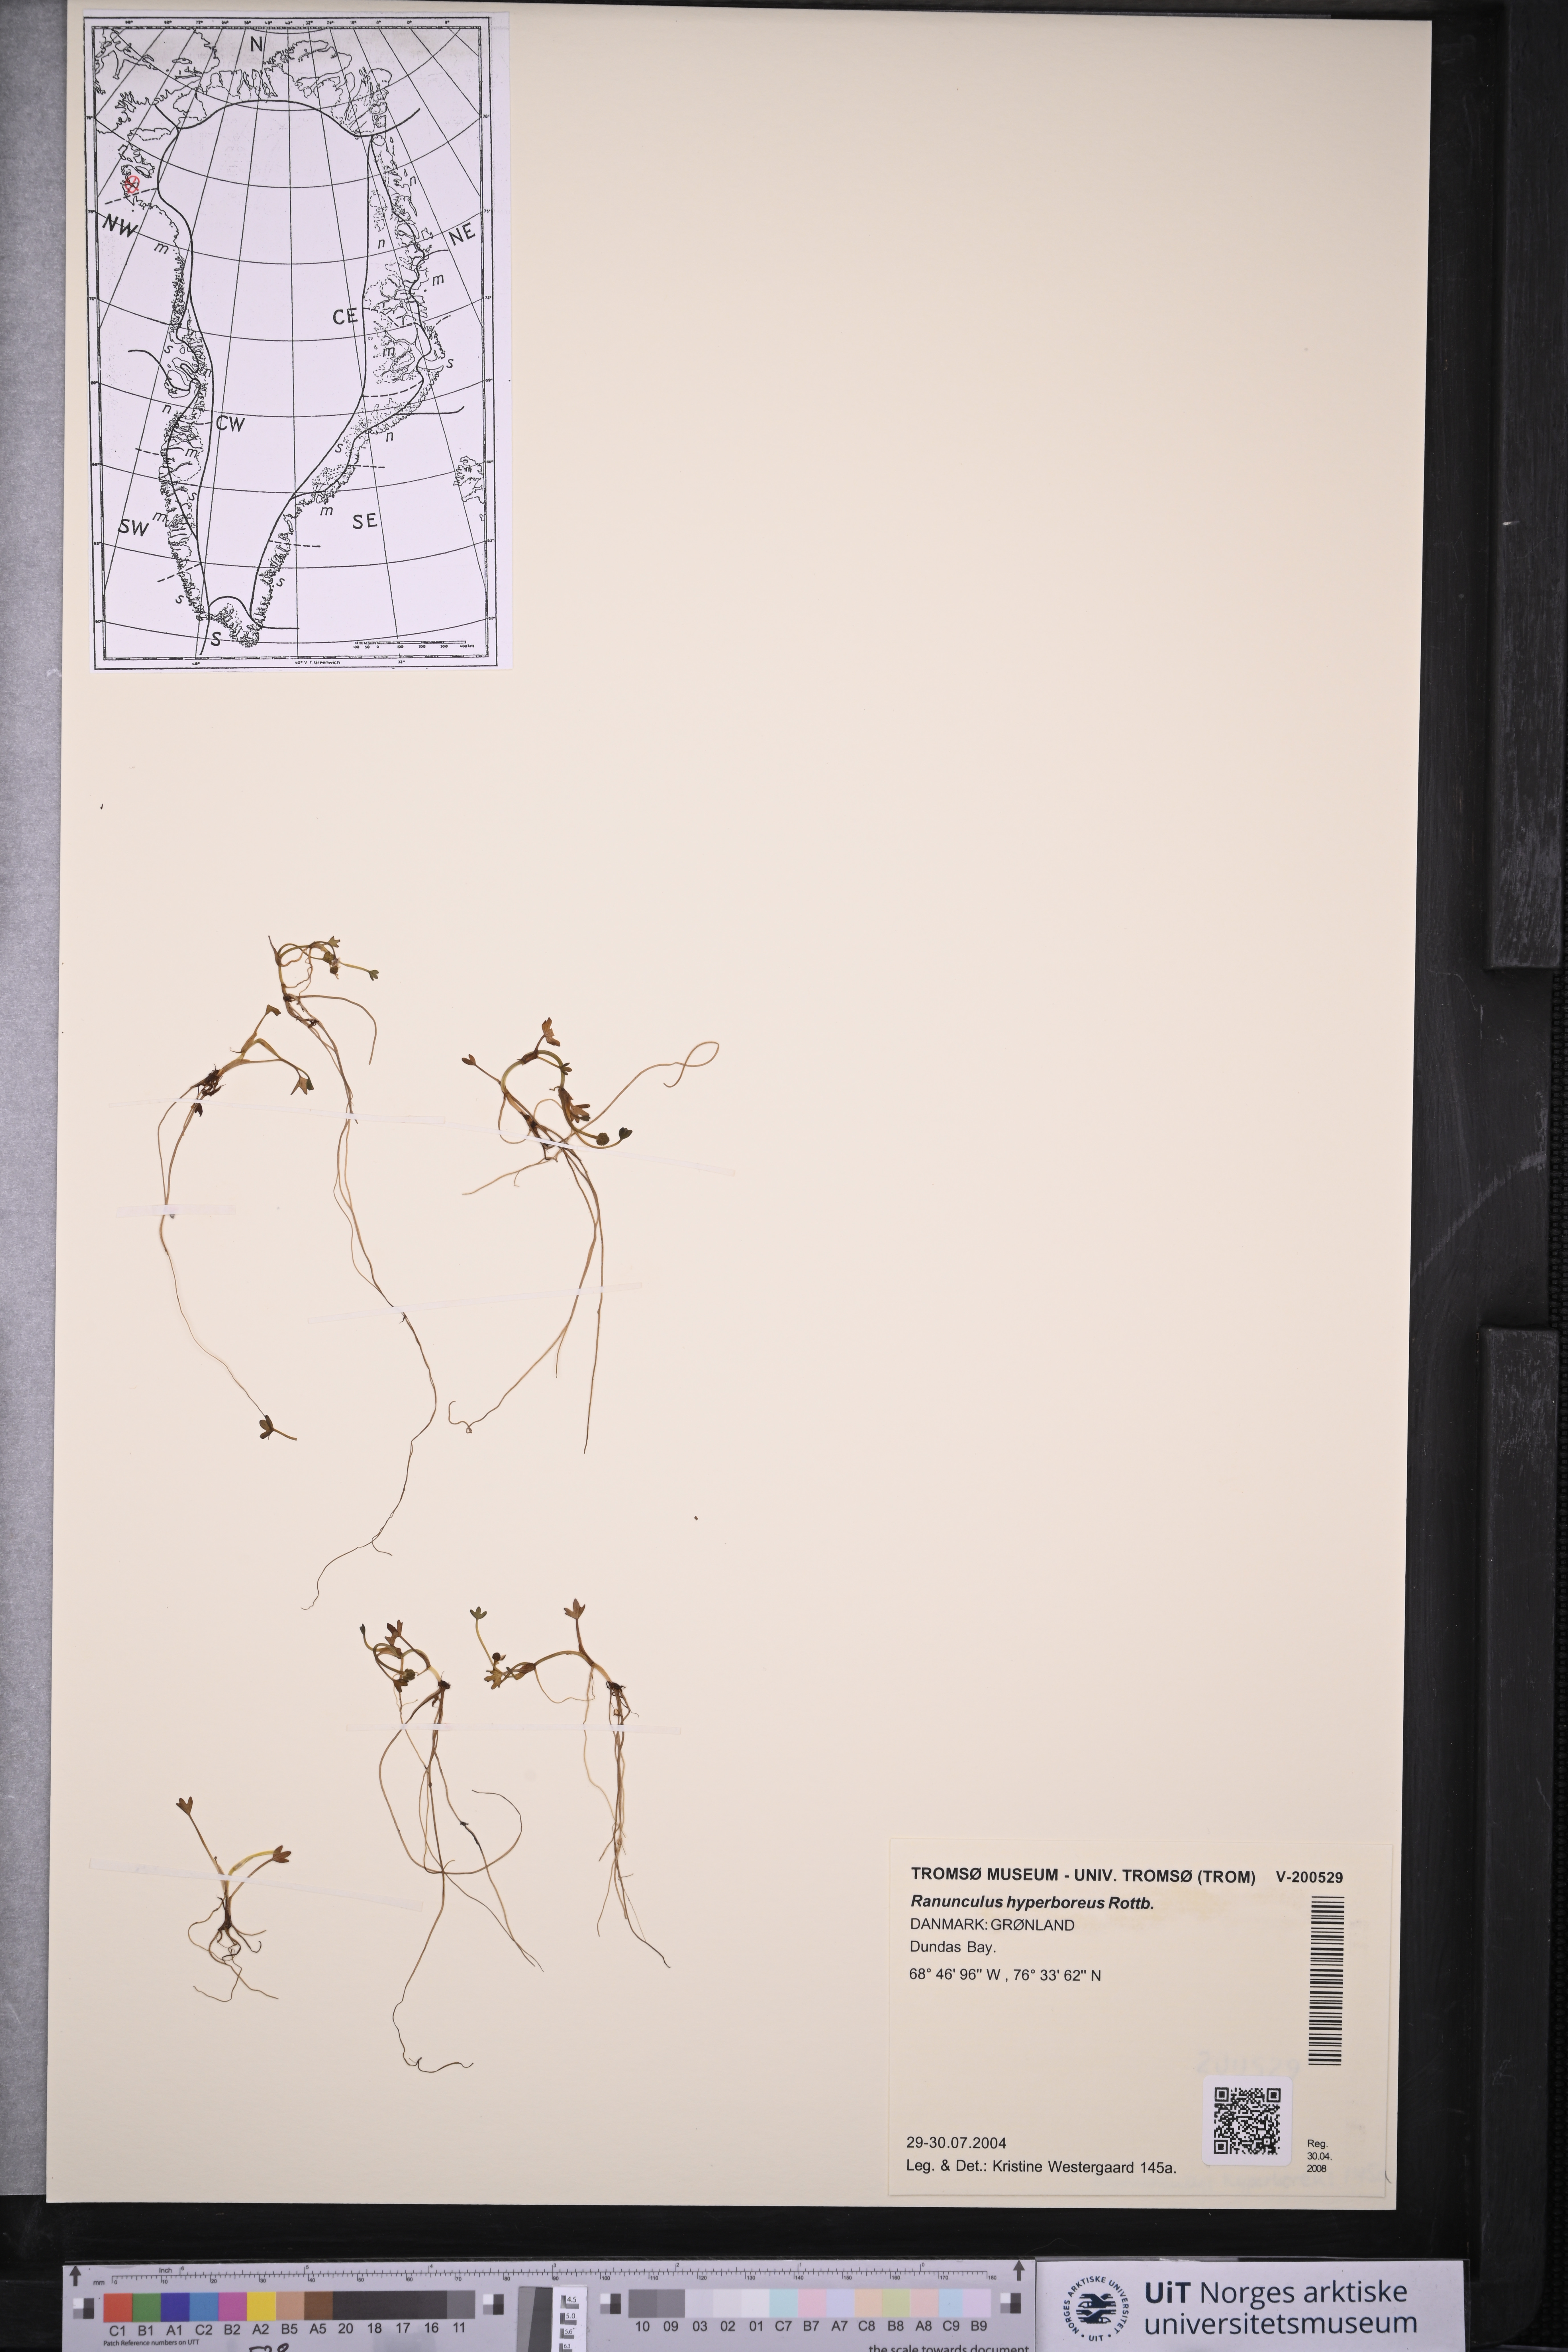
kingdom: Plantae
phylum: Tracheophyta
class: Magnoliopsida
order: Ranunculales
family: Ranunculaceae
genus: Ranunculus
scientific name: Ranunculus hyperboreus
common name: Arctic buttercup
